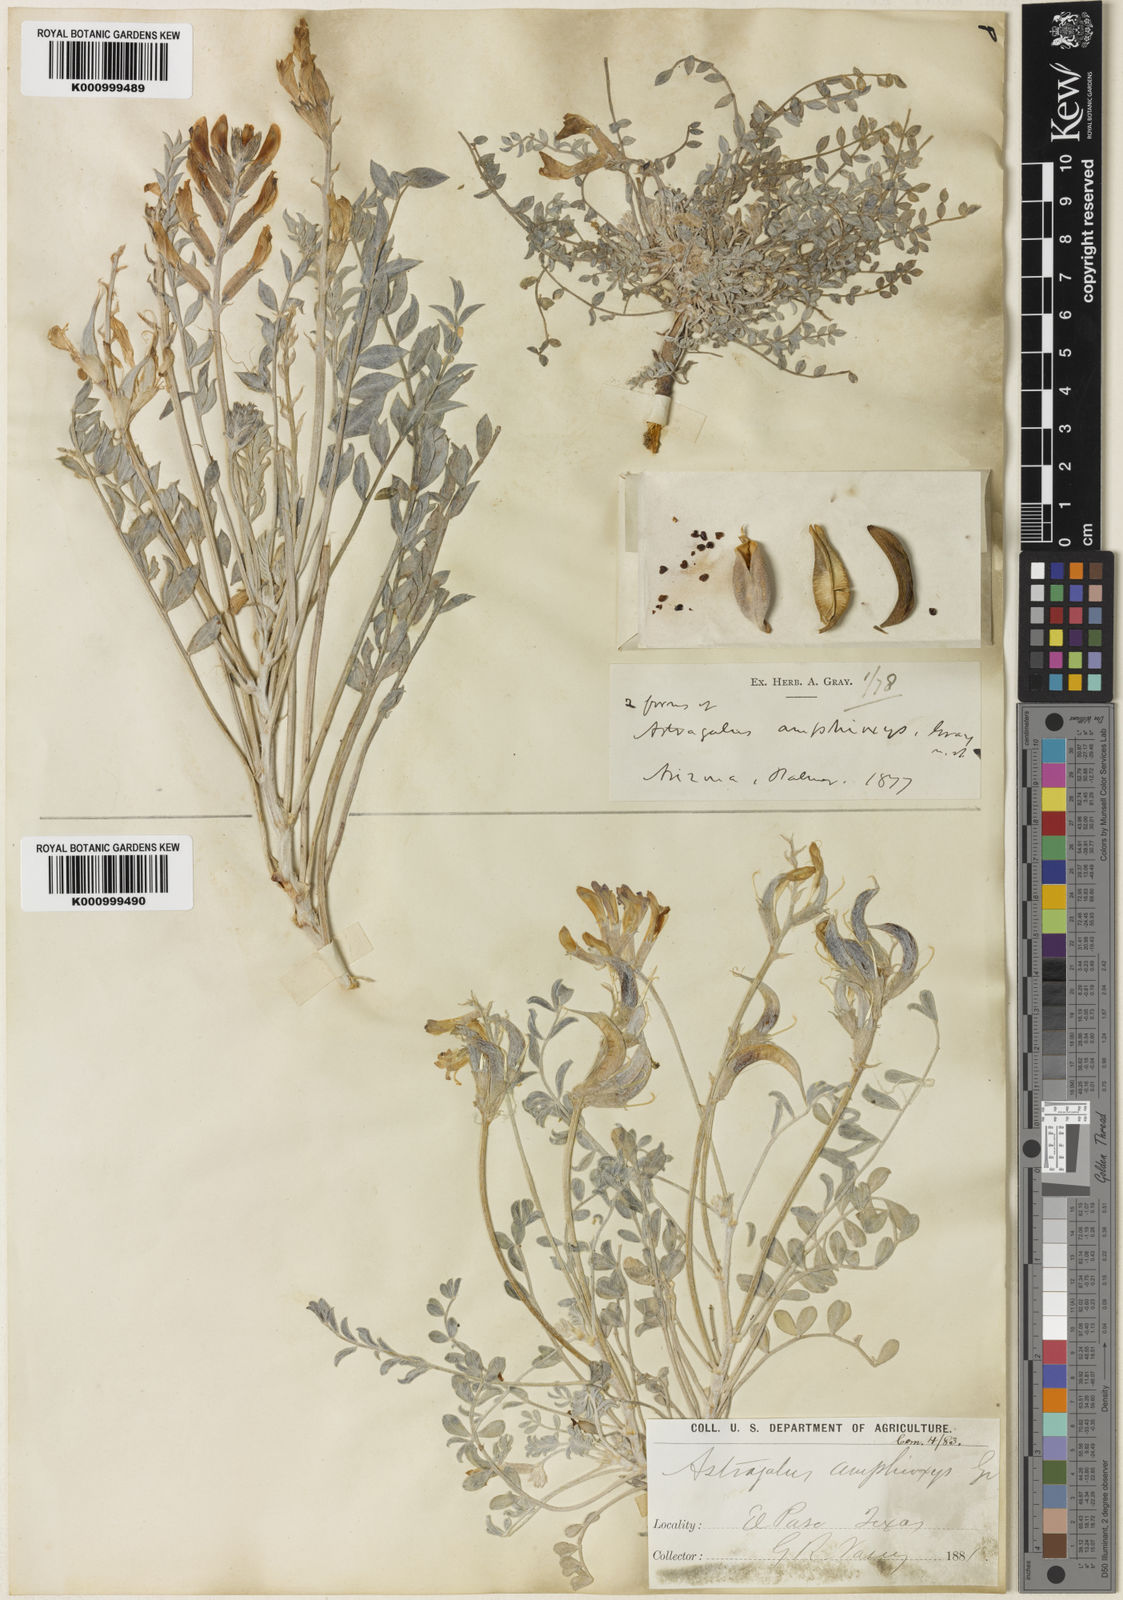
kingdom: Plantae
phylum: Tracheophyta
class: Magnoliopsida
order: Fabales
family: Fabaceae
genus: Astragalus
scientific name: Astragalus amphioxys
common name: Crescent milk-vetch
